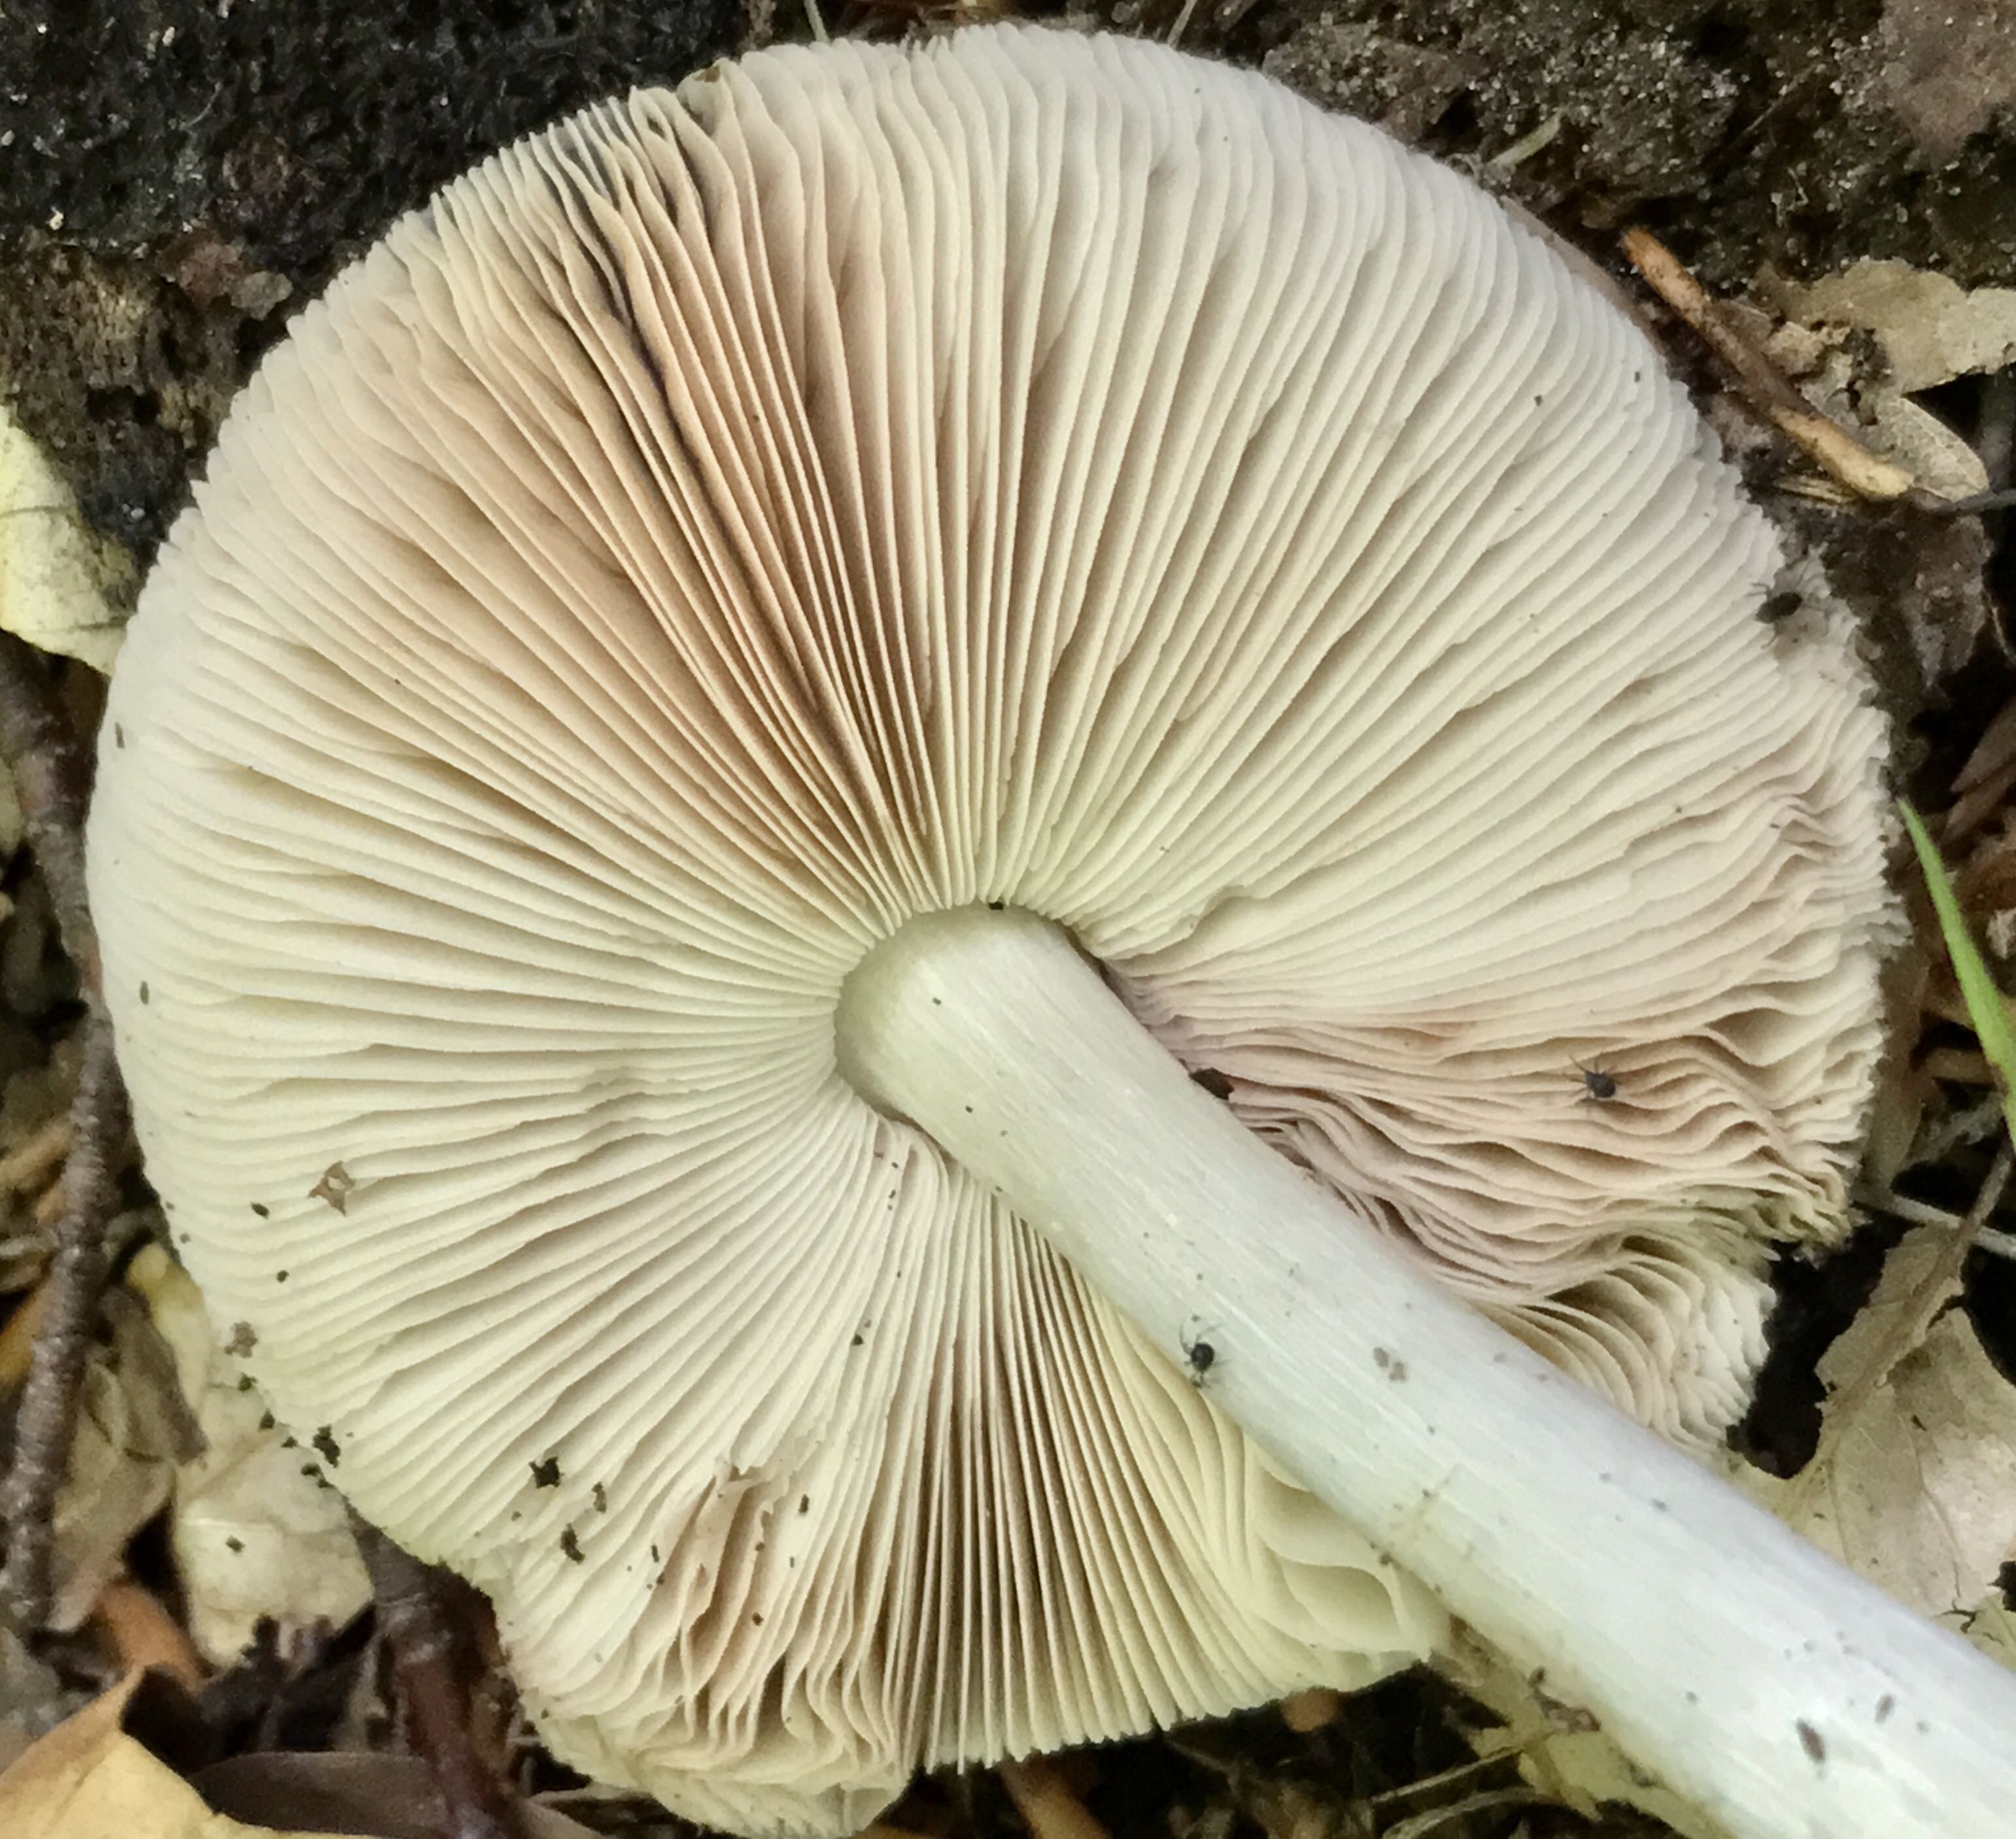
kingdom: Fungi
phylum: Basidiomycota
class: Agaricomycetes
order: Agaricales
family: Pluteaceae
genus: Pluteus
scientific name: Pluteus salicinus
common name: stiv skærmhat
